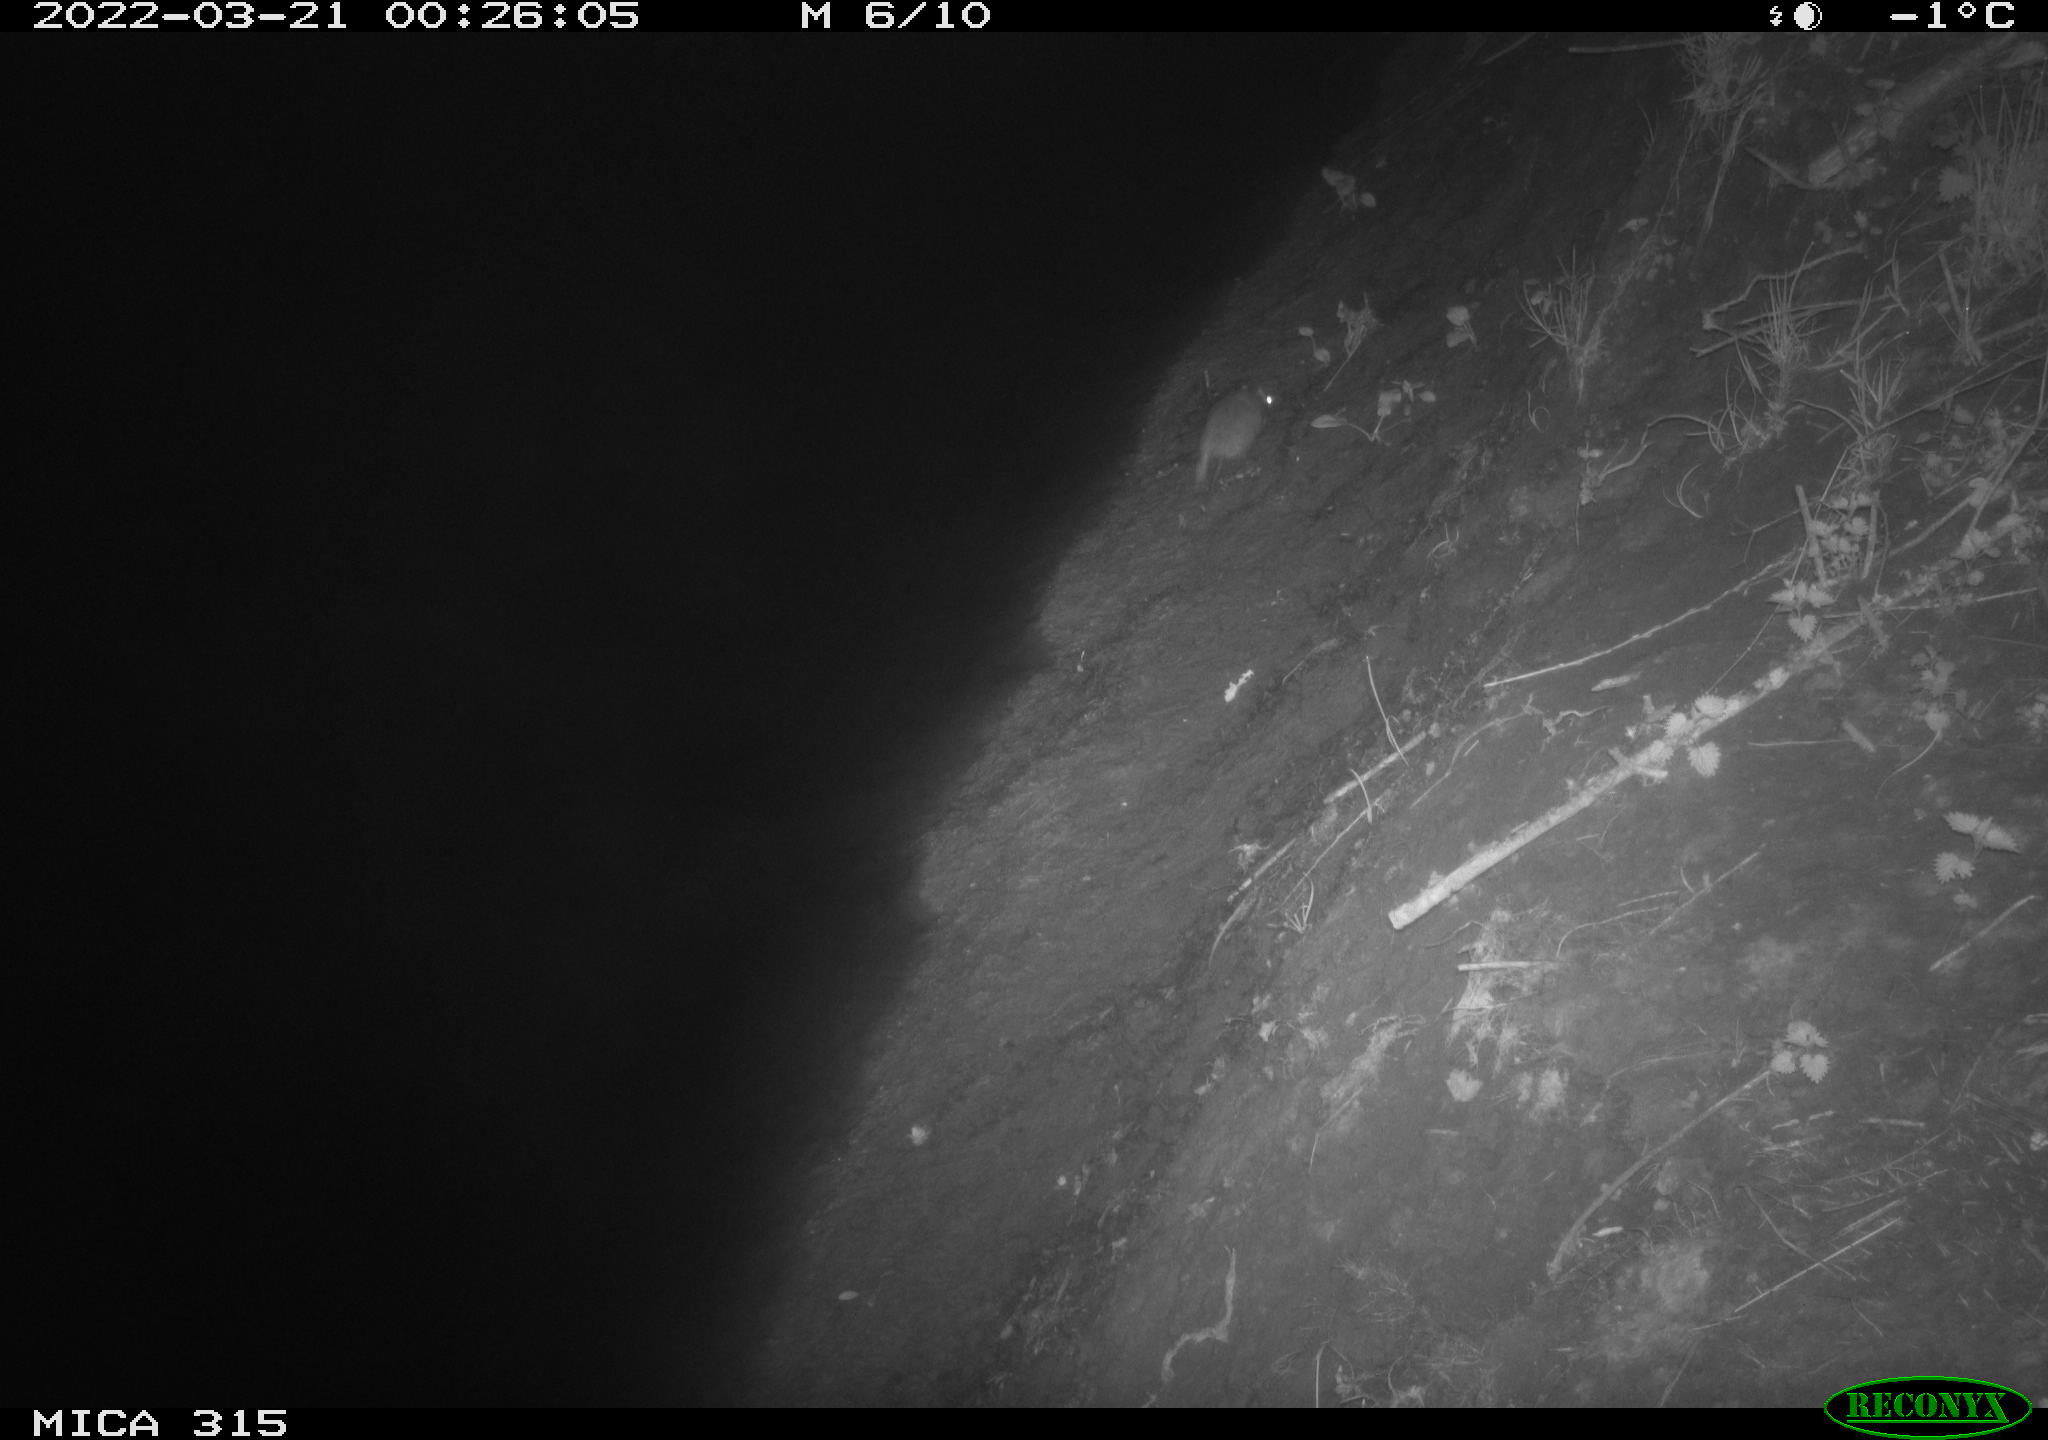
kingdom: Animalia
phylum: Chordata
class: Mammalia
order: Rodentia
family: Muridae
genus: Rattus
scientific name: Rattus norvegicus
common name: Brown rat
